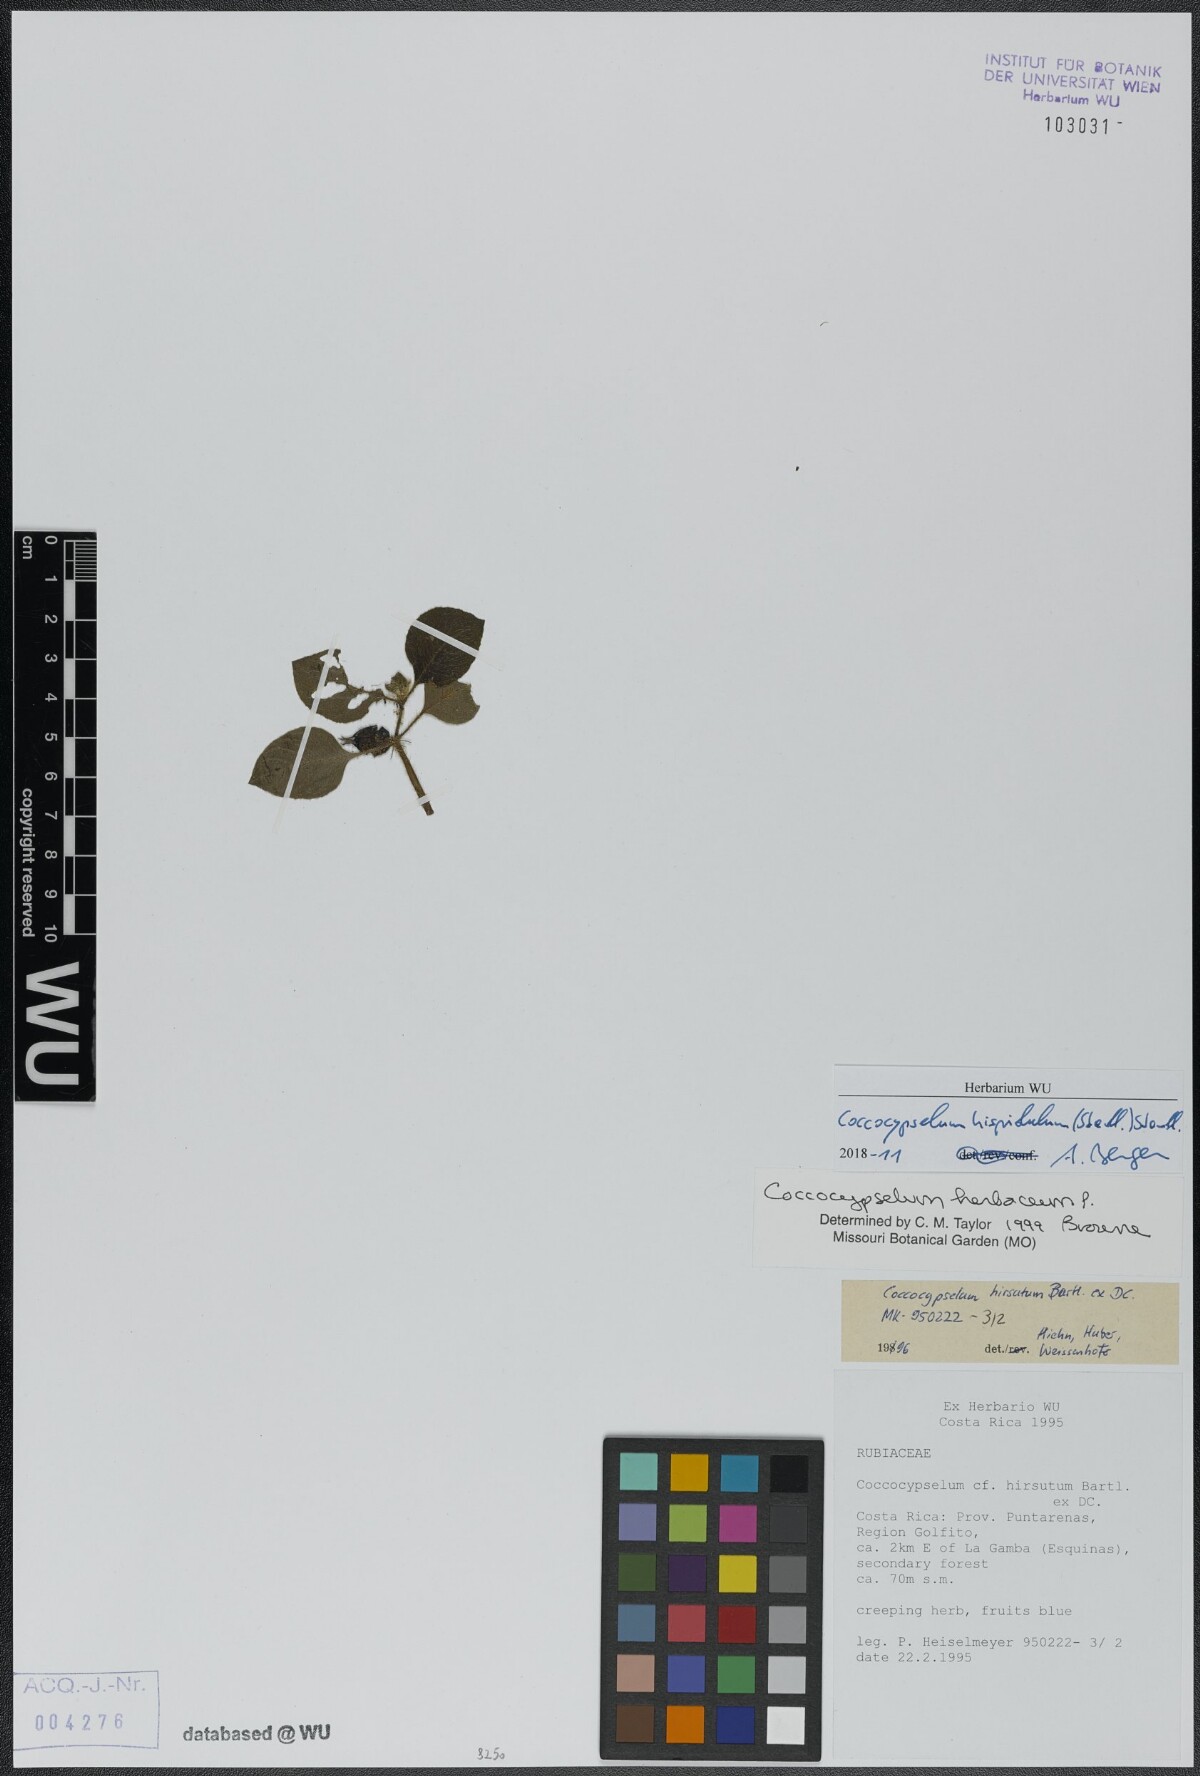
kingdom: Plantae
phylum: Tracheophyta
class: Magnoliopsida
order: Gentianales
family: Rubiaceae
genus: Coccocypselum
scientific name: Coccocypselum hispidulum
